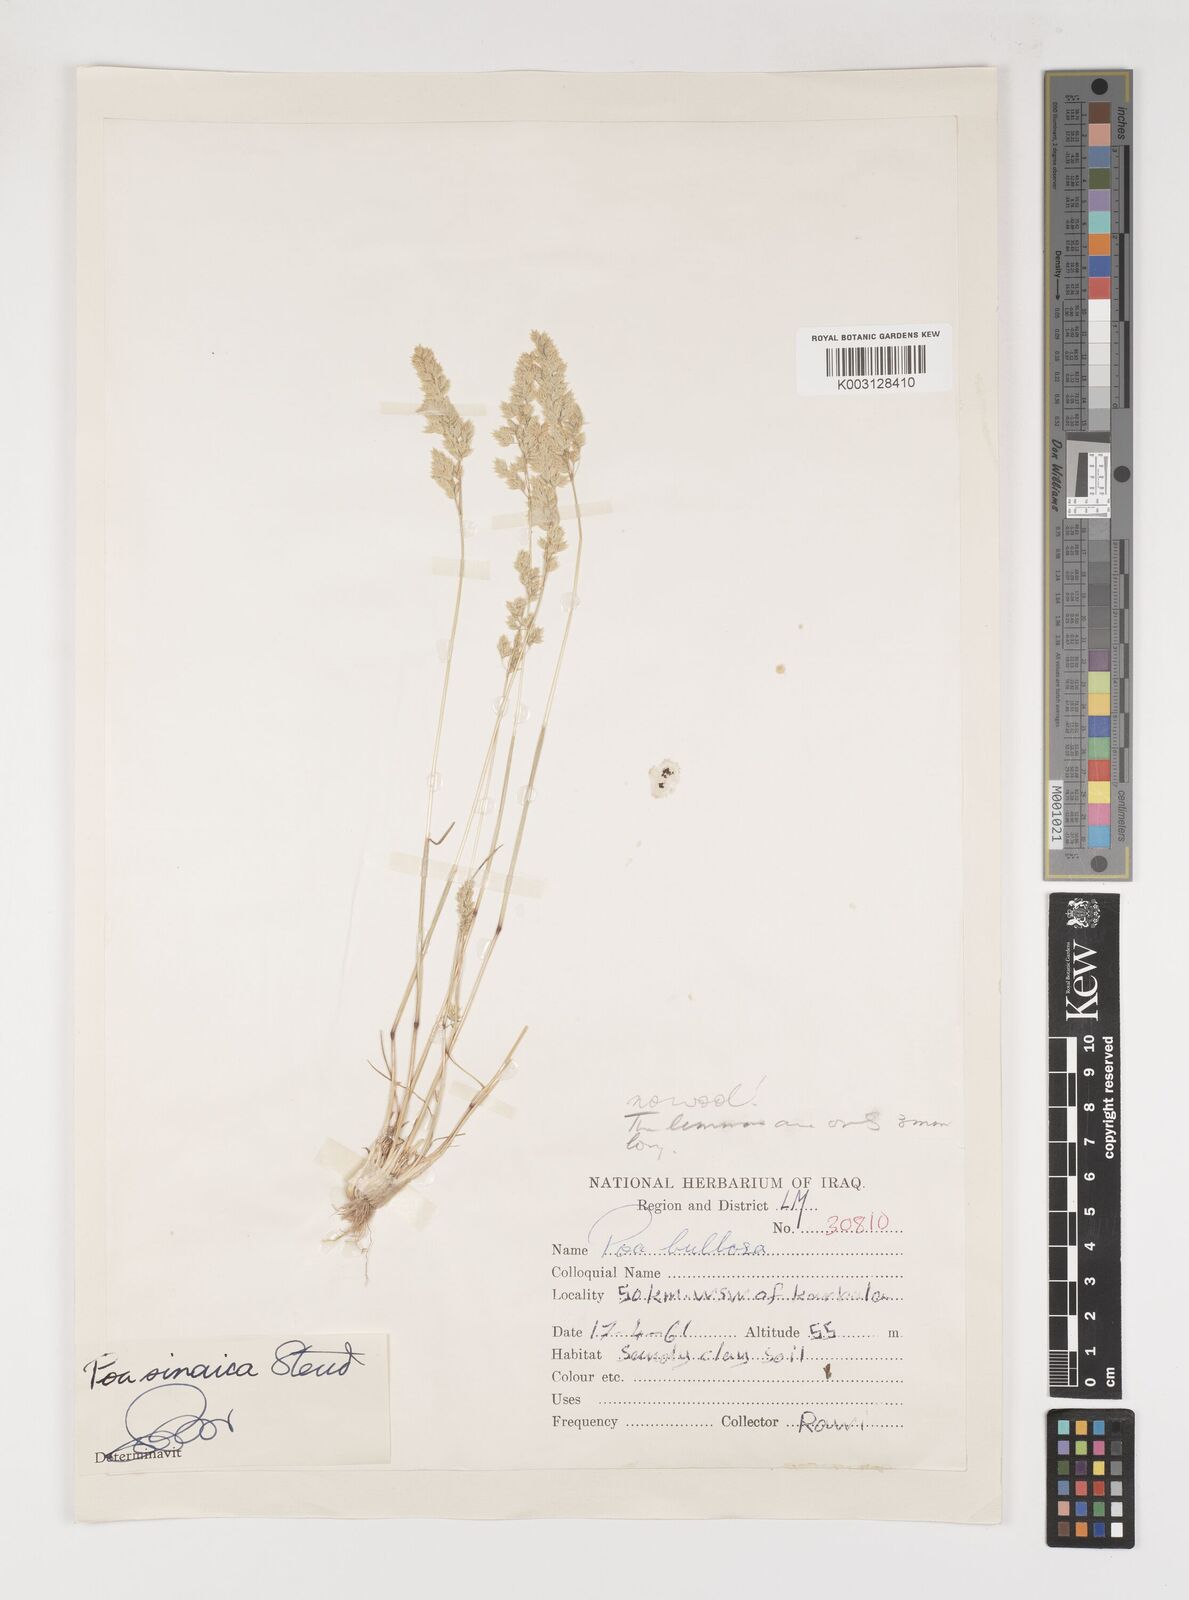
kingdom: Plantae
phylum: Tracheophyta
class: Liliopsida
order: Poales
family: Poaceae
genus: Poa
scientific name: Poa sinaica
